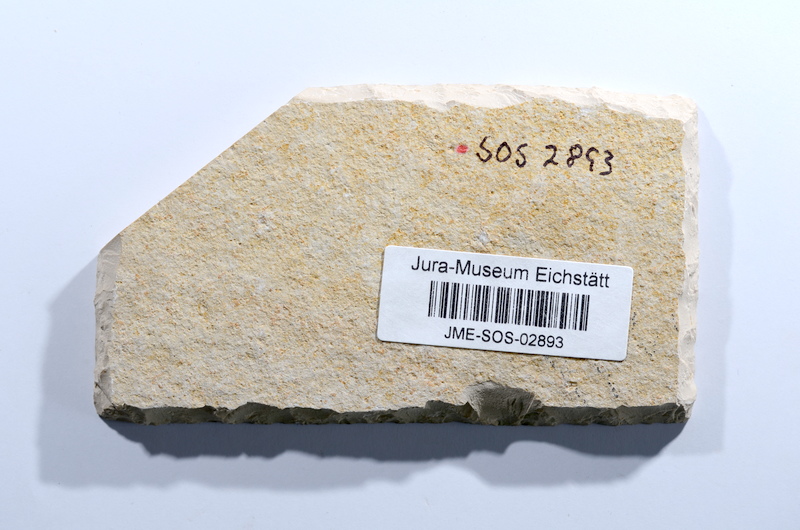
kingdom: Animalia
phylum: Chordata
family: Ascalaboidae
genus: Ascalabos
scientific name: Ascalabos voithii
